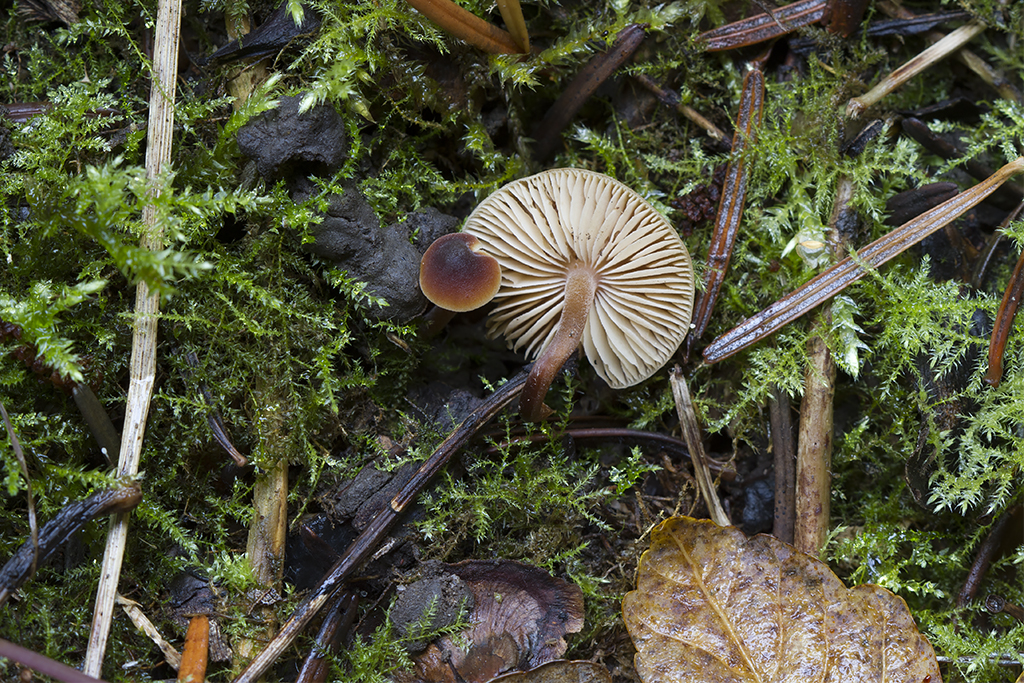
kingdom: Fungi
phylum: Basidiomycota
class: Agaricomycetes
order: Agaricales
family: Macrocystidiaceae
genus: Macrocystidia
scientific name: Macrocystidia cucumis
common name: agurkehat
